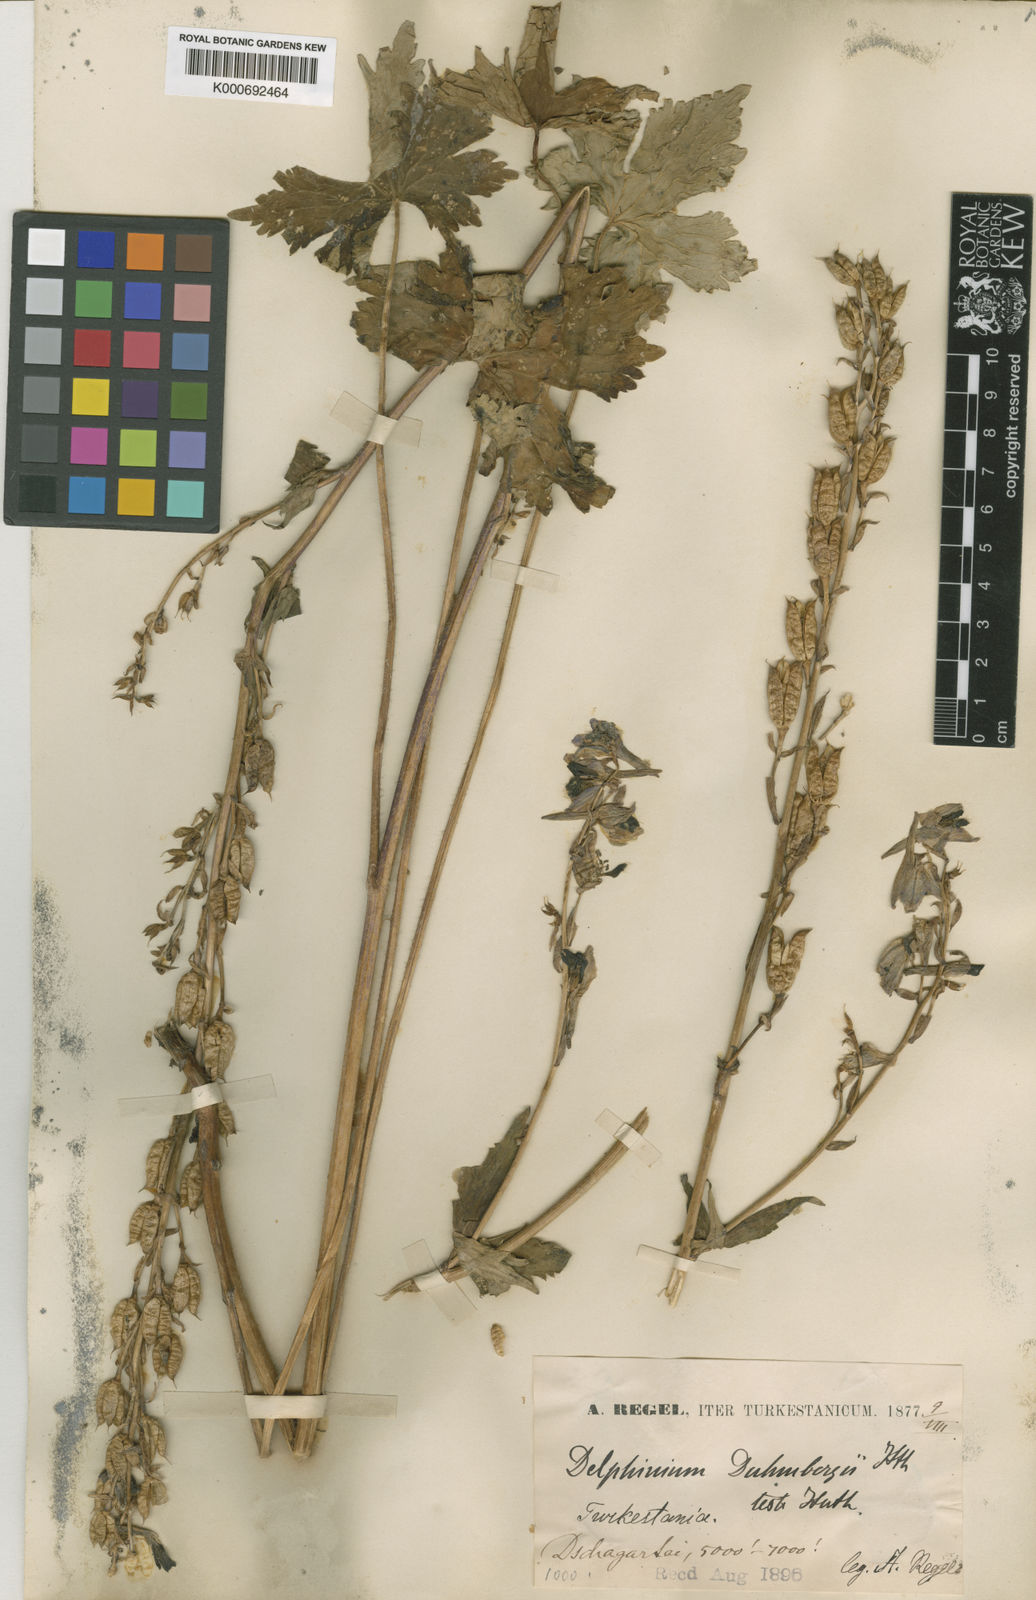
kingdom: Plantae
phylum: Tracheophyta
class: Magnoliopsida
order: Ranunculales
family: Ranunculaceae
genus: Delphinium
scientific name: Delphinium corymbosum
